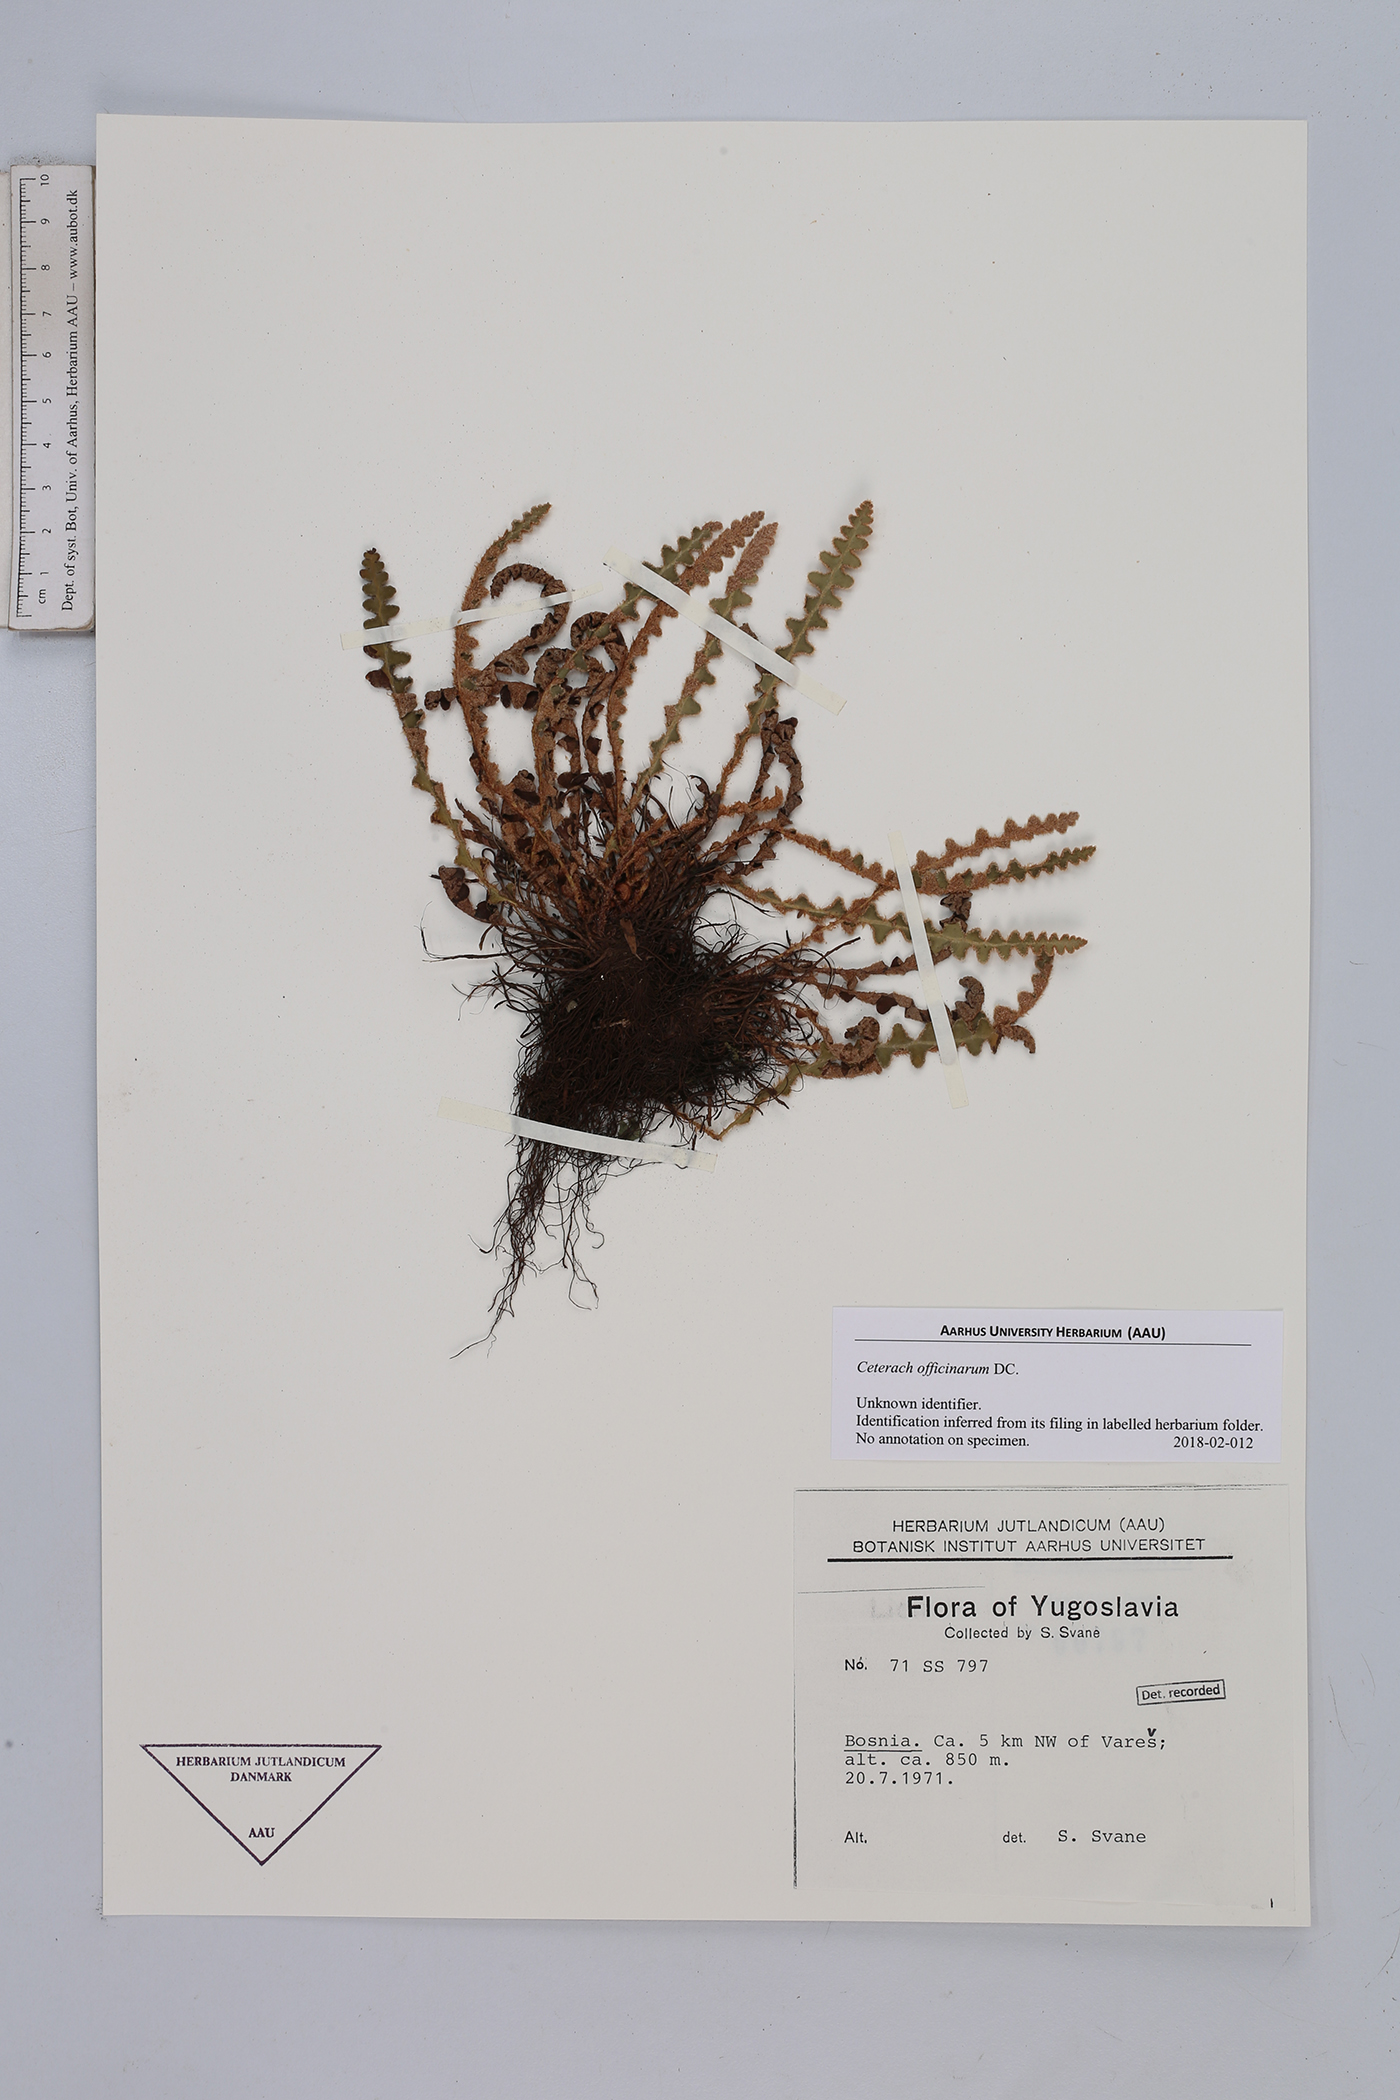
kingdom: Plantae
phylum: Tracheophyta
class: Polypodiopsida
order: Polypodiales
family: Aspleniaceae
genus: Asplenium
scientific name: Asplenium ceterach
